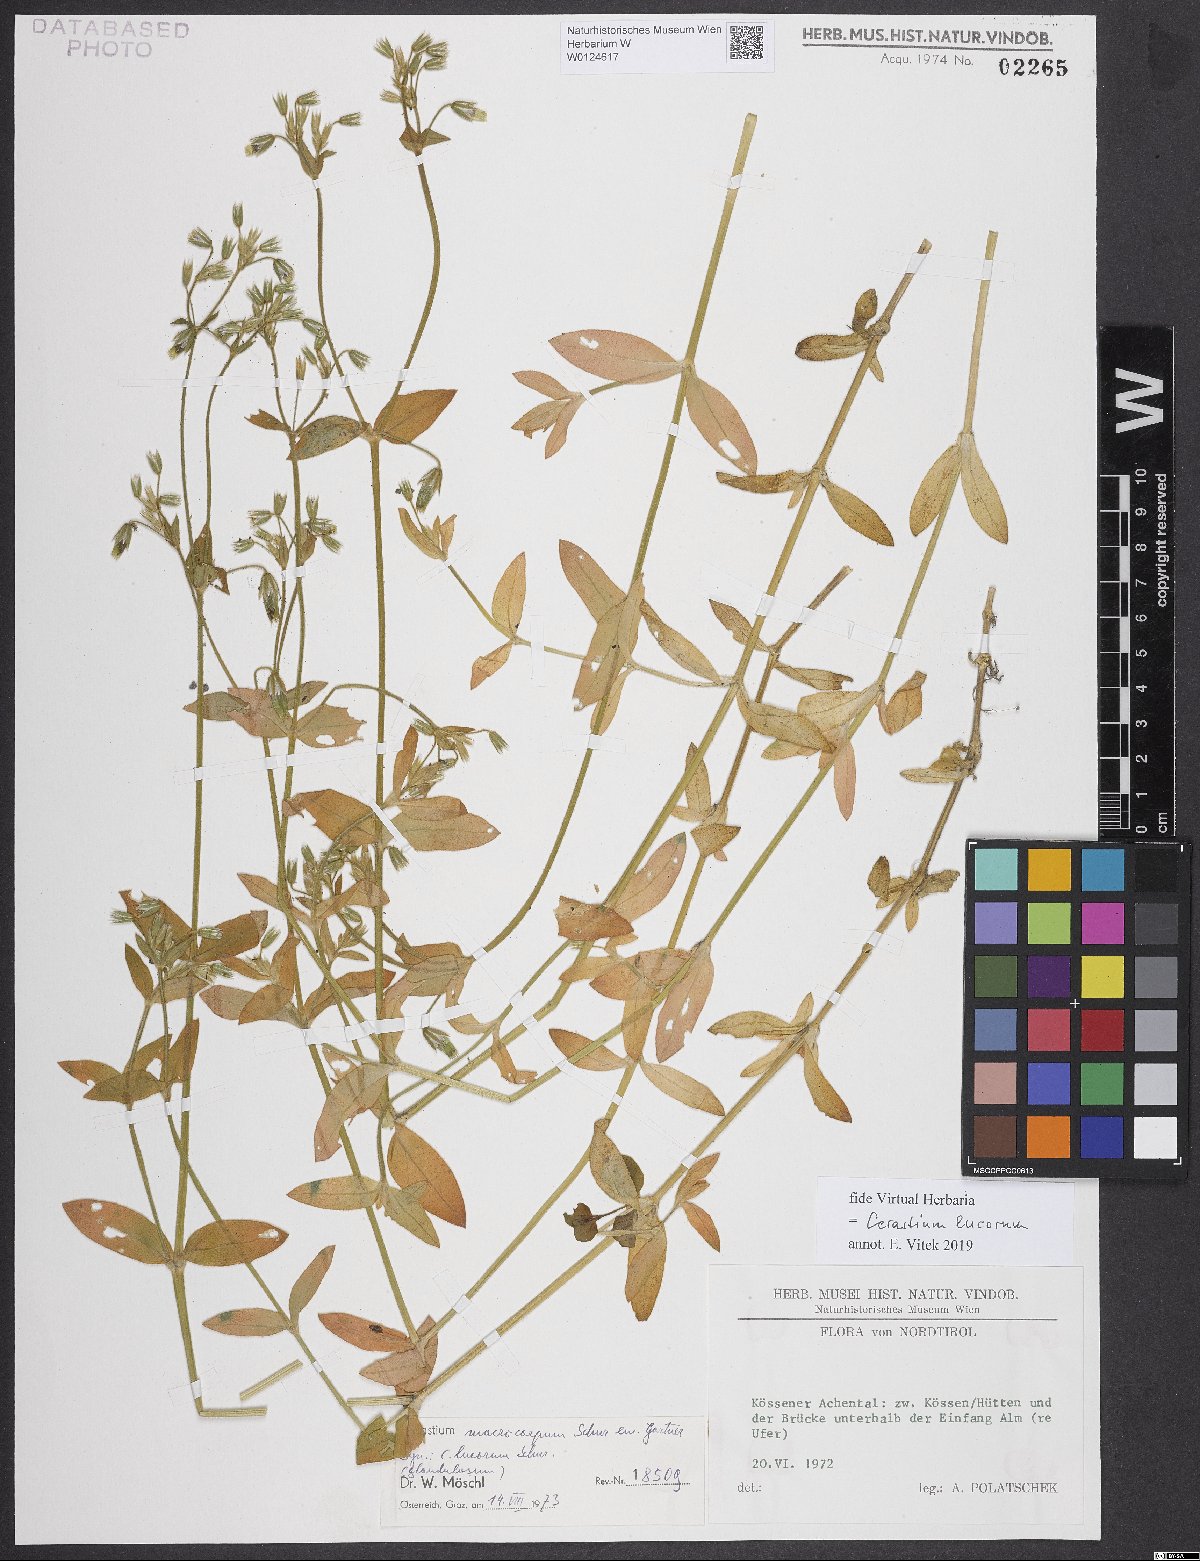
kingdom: Plantae
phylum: Tracheophyta
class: Magnoliopsida
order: Caryophyllales
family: Caryophyllaceae
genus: Cerastium
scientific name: Cerastium lucorum
